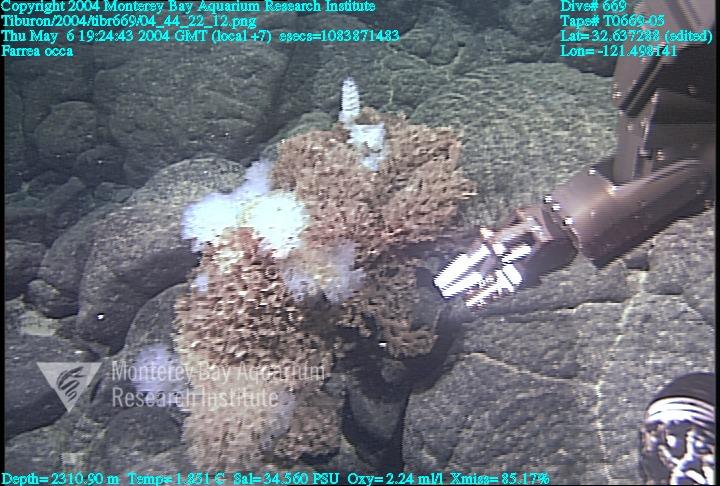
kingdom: Animalia
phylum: Porifera
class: Hexactinellida
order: Sceptrulophora
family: Farreidae
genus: Farrea
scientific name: Farrea occa
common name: Reversed glass sponge
